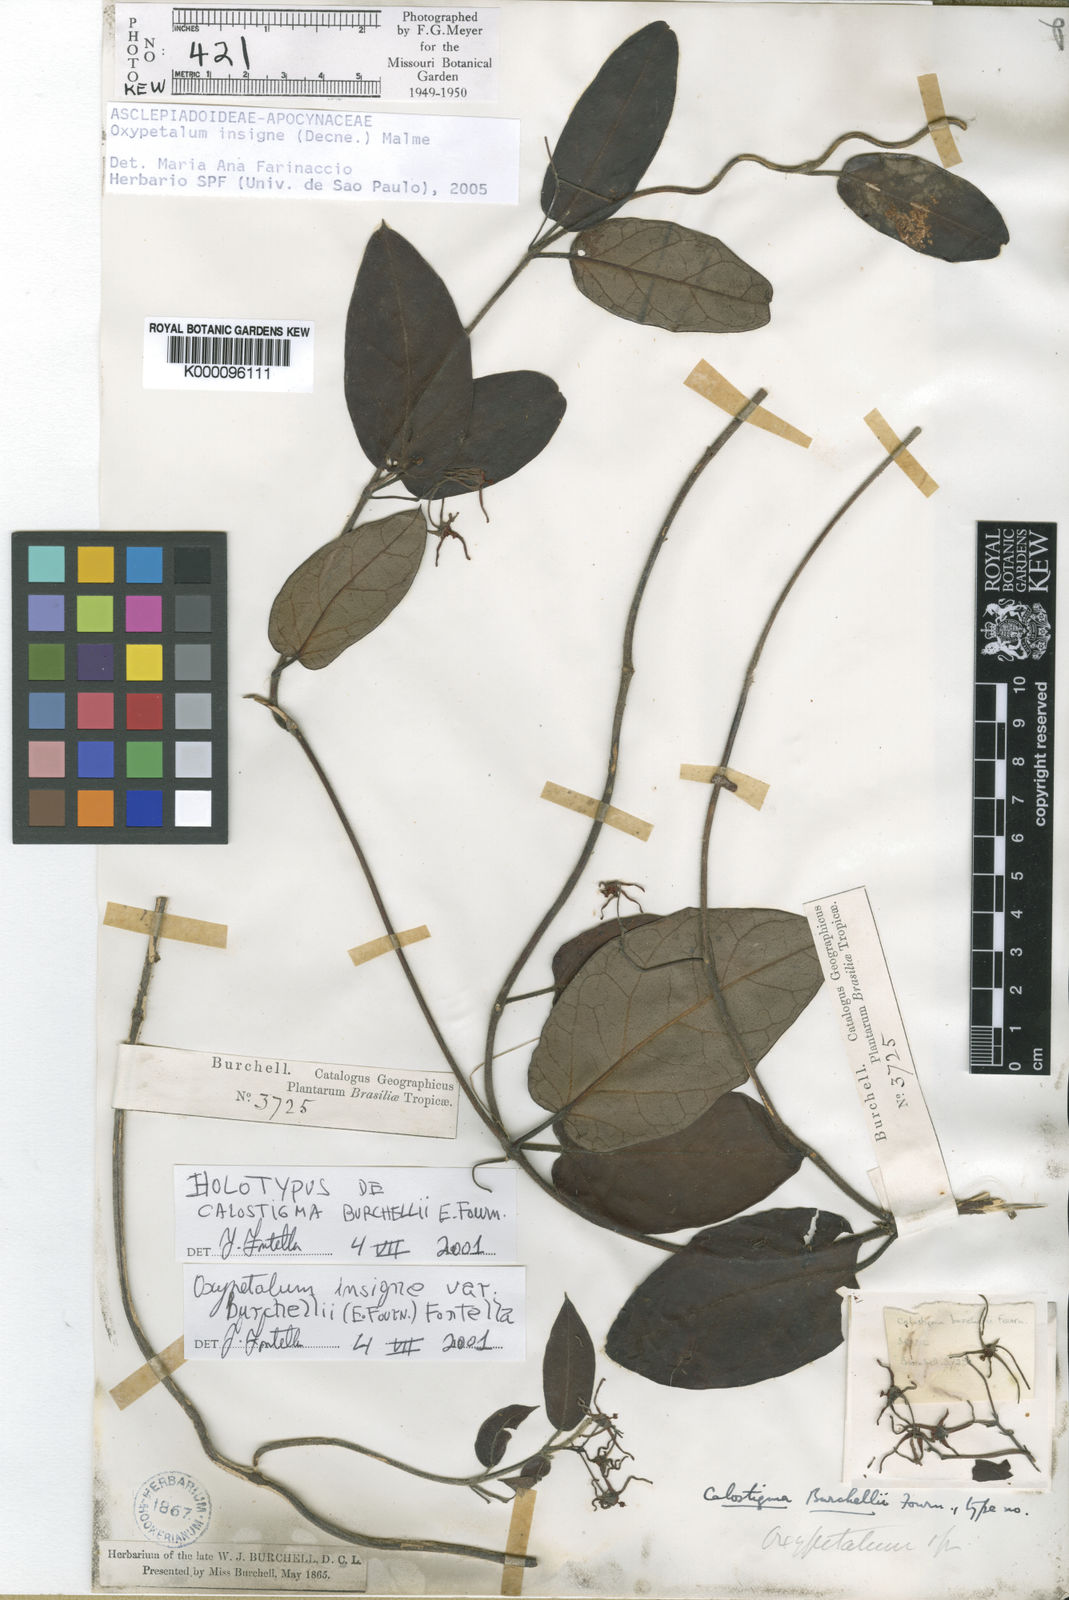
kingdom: Plantae
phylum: Tracheophyta
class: Magnoliopsida
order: Gentianales
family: Apocynaceae
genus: Oxypetalum
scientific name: Oxypetalum burchellii
